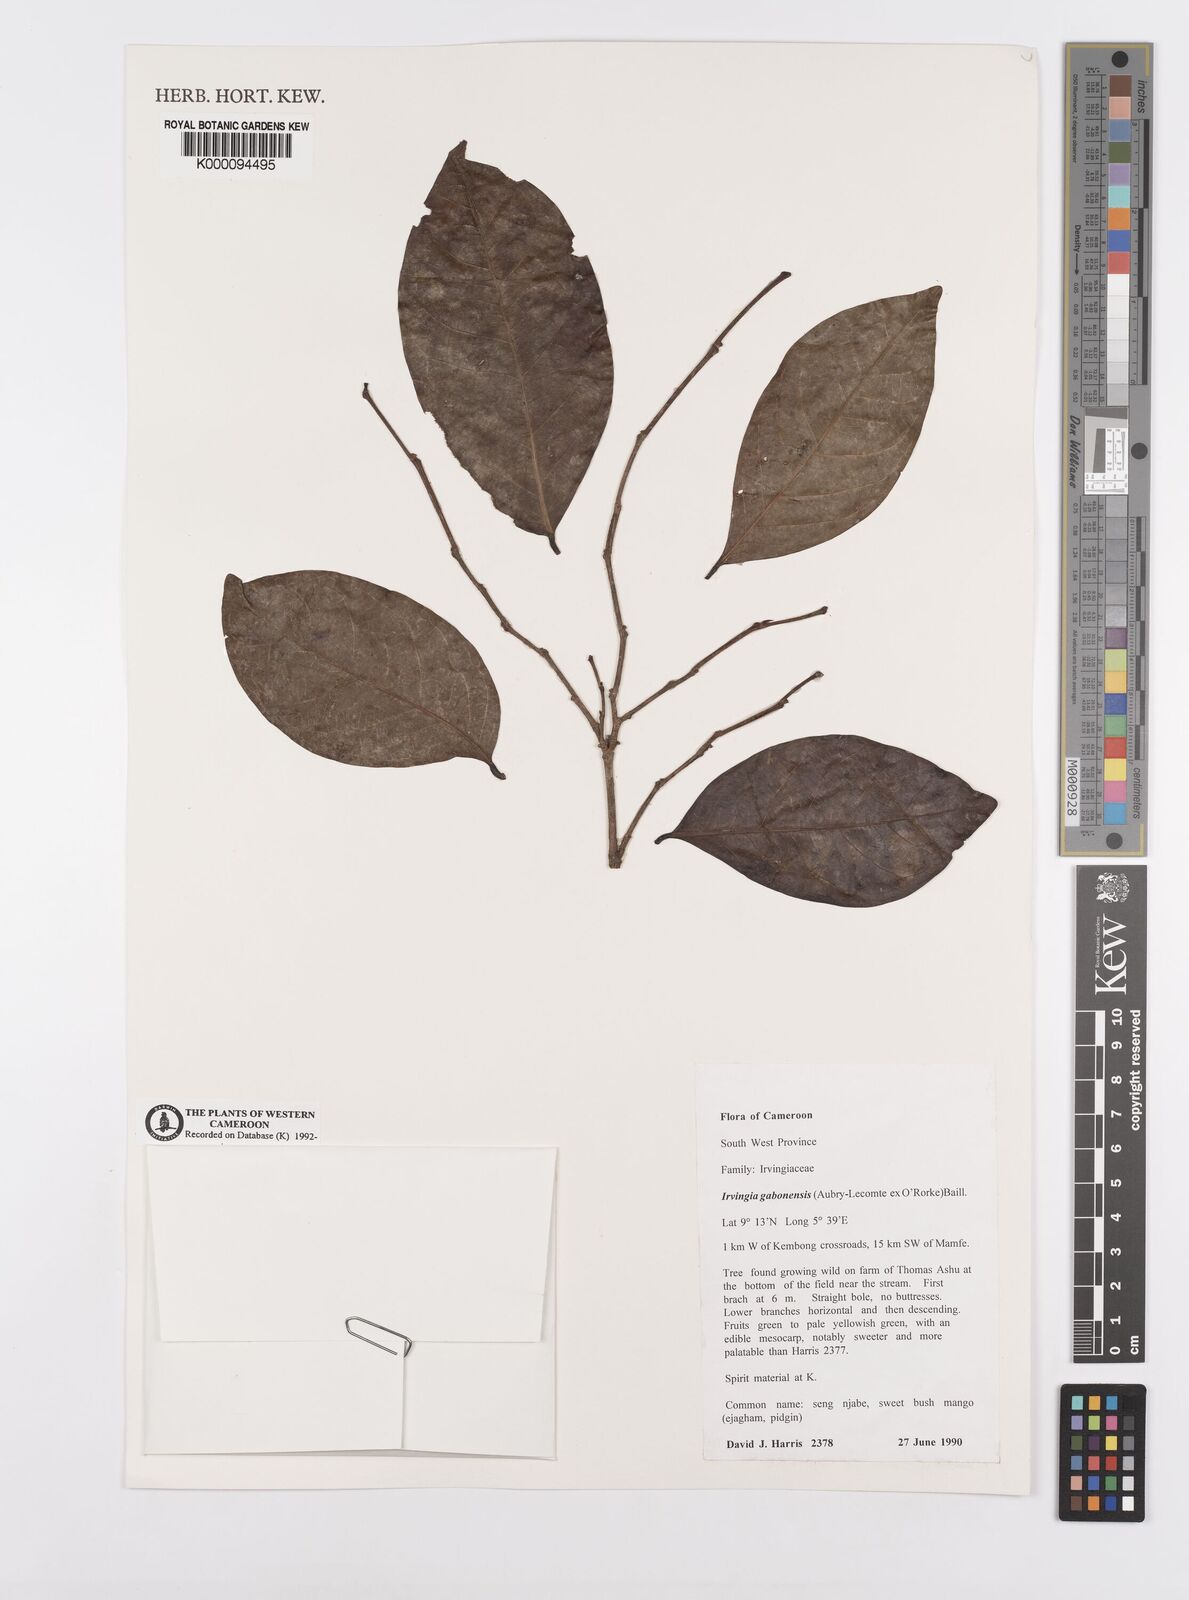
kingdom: Plantae
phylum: Tracheophyta
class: Magnoliopsida
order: Malpighiales
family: Irvingiaceae
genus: Irvingia
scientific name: Irvingia gabonensis
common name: Rainy season bush-mango
